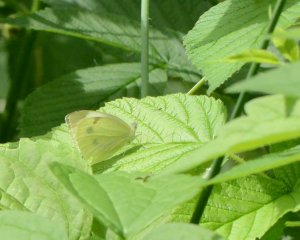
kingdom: Animalia
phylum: Arthropoda
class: Insecta
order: Lepidoptera
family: Pieridae
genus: Pieris
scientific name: Pieris rapae
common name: Cabbage White
